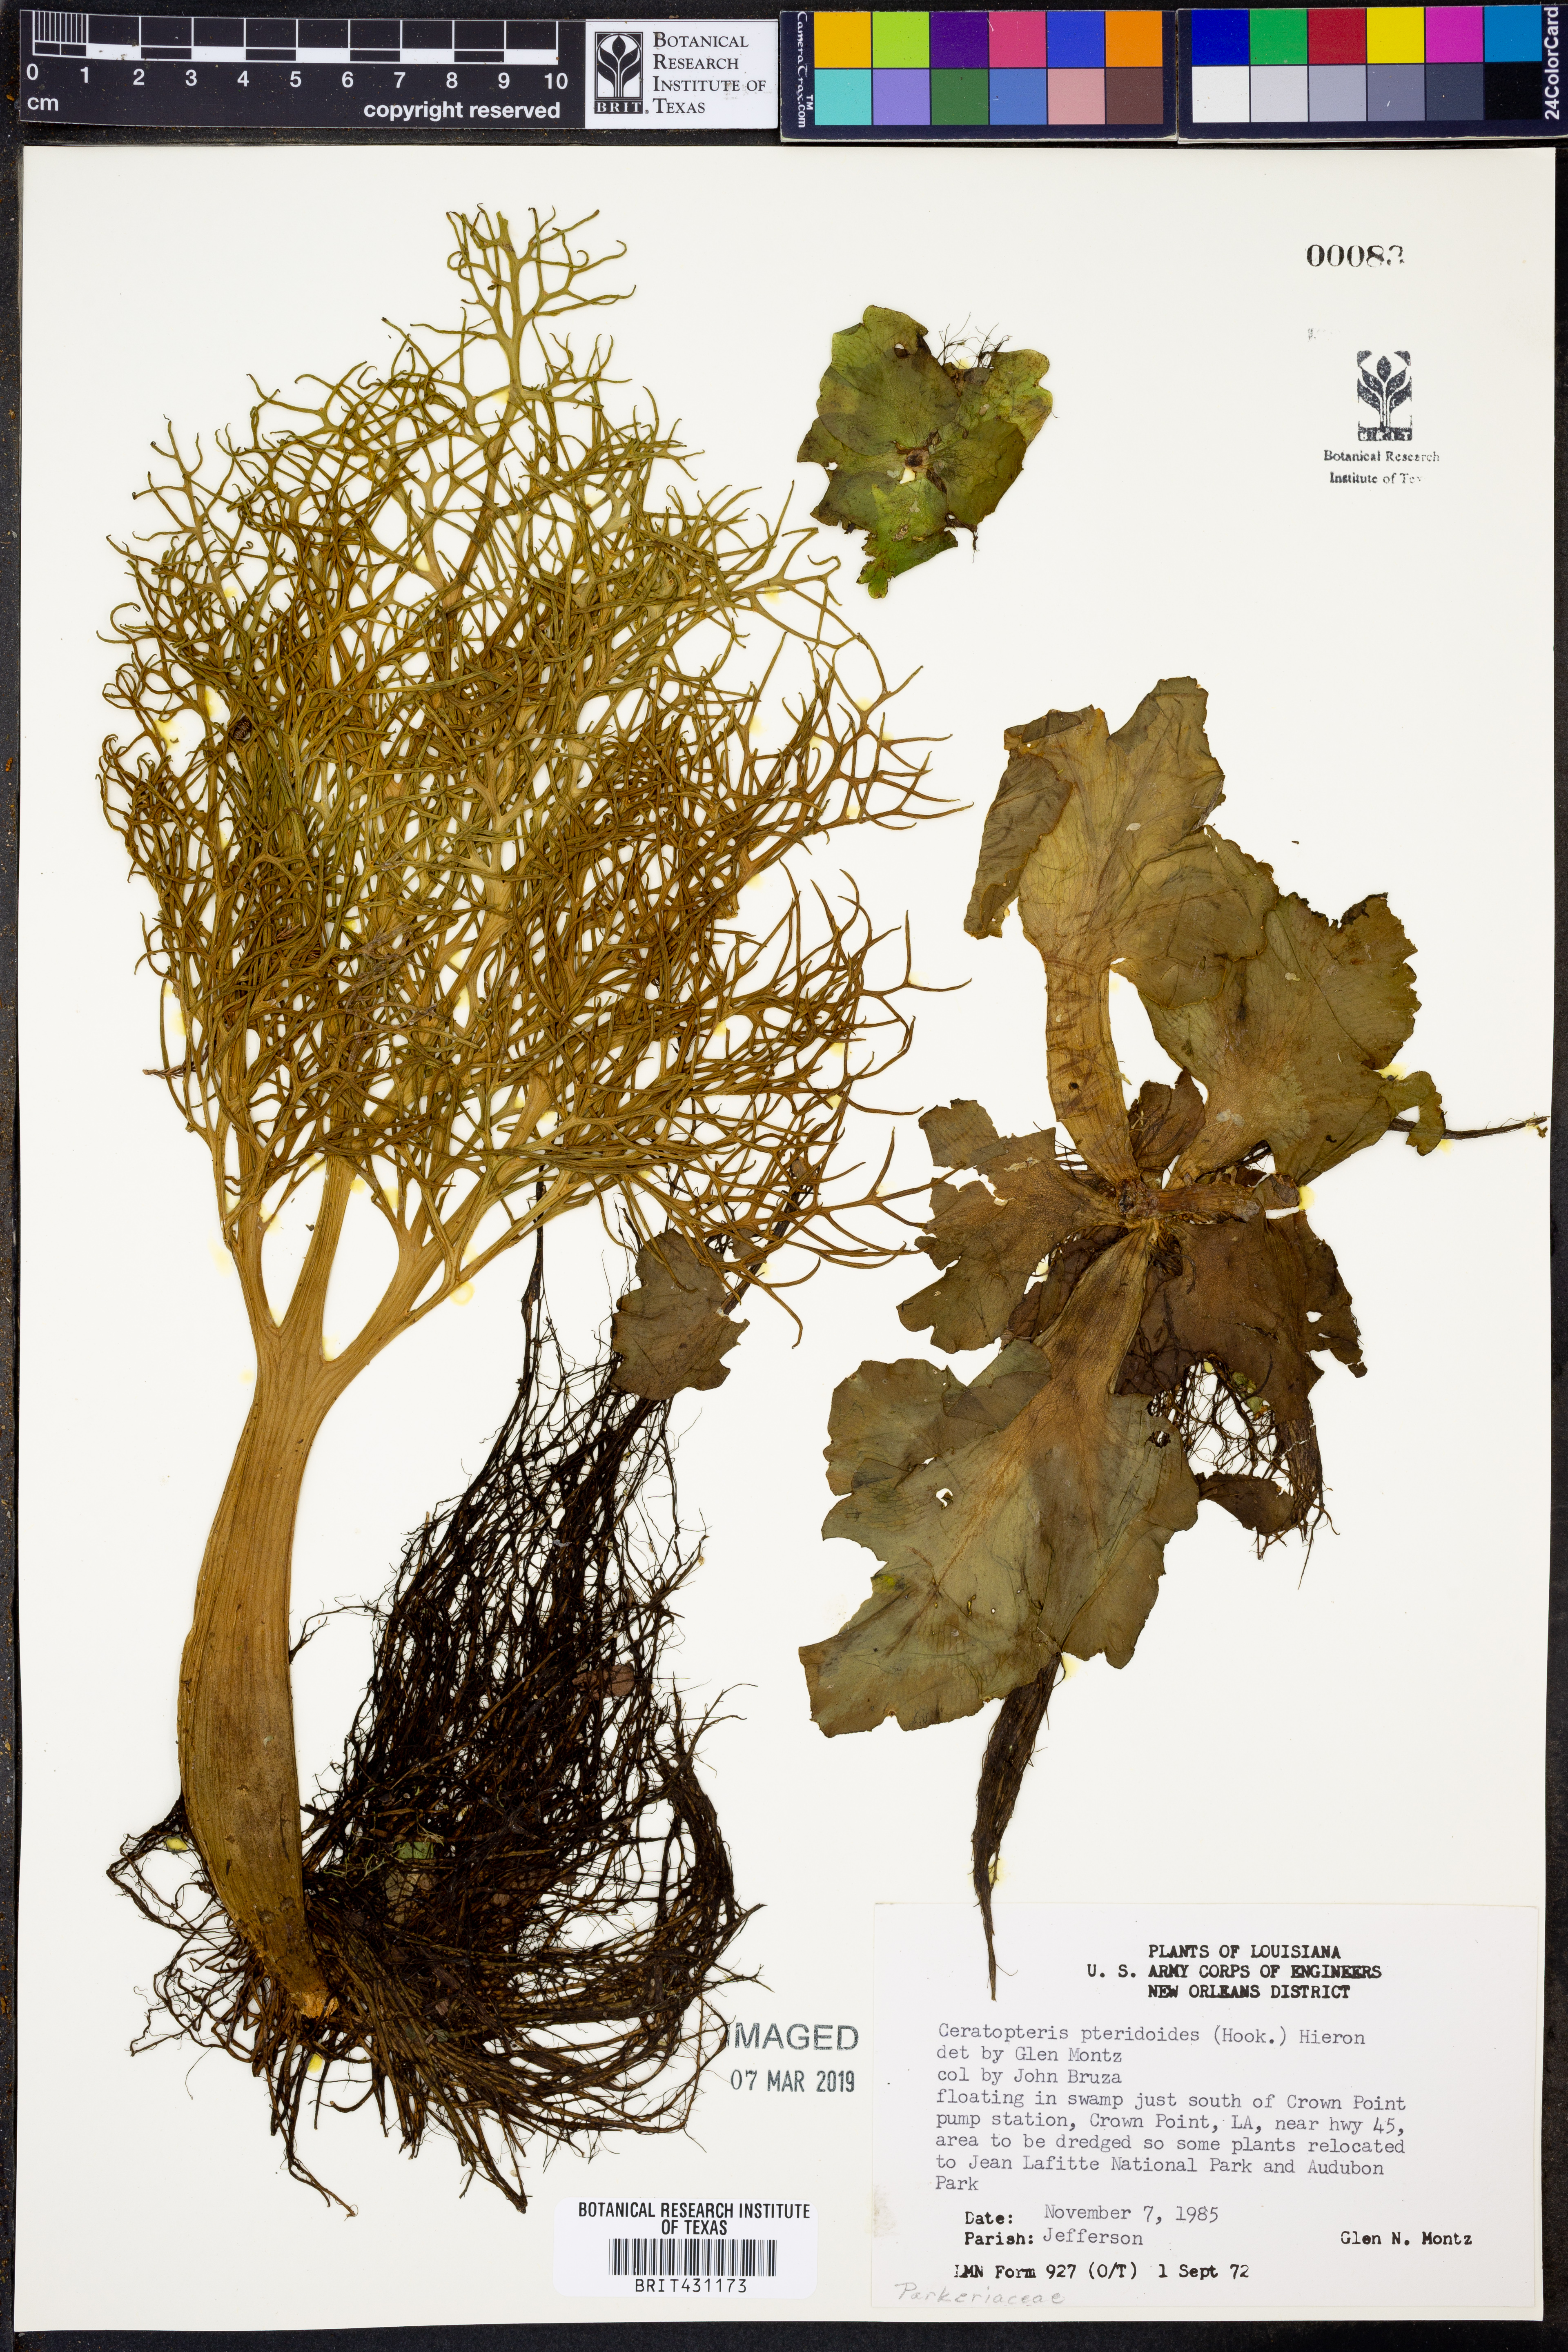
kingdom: Plantae
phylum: Tracheophyta
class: Polypodiopsida
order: Polypodiales
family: Pteridaceae
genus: Ceratopteris
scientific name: Ceratopteris pteridoides
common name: Floating fern
